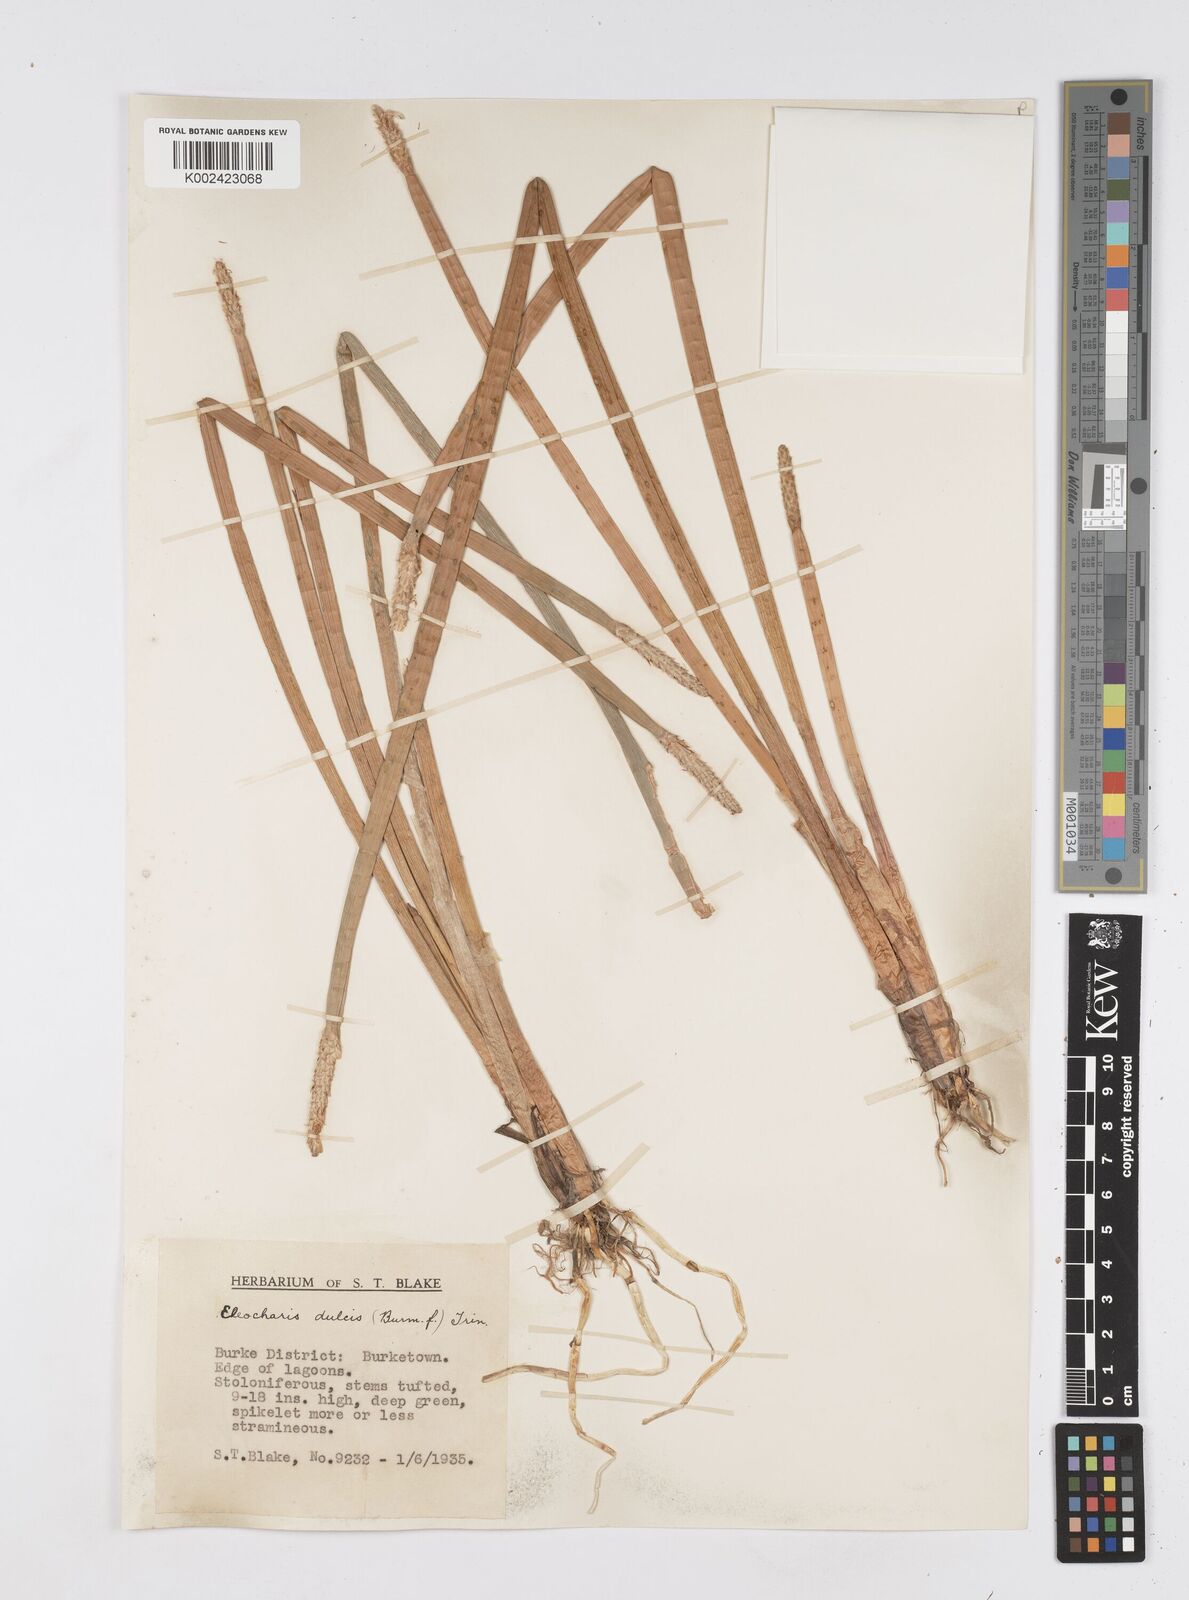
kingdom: Plantae
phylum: Tracheophyta
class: Liliopsida
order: Poales
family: Cyperaceae
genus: Eleocharis
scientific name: Eleocharis dulcis
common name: Chinese water chestnut
